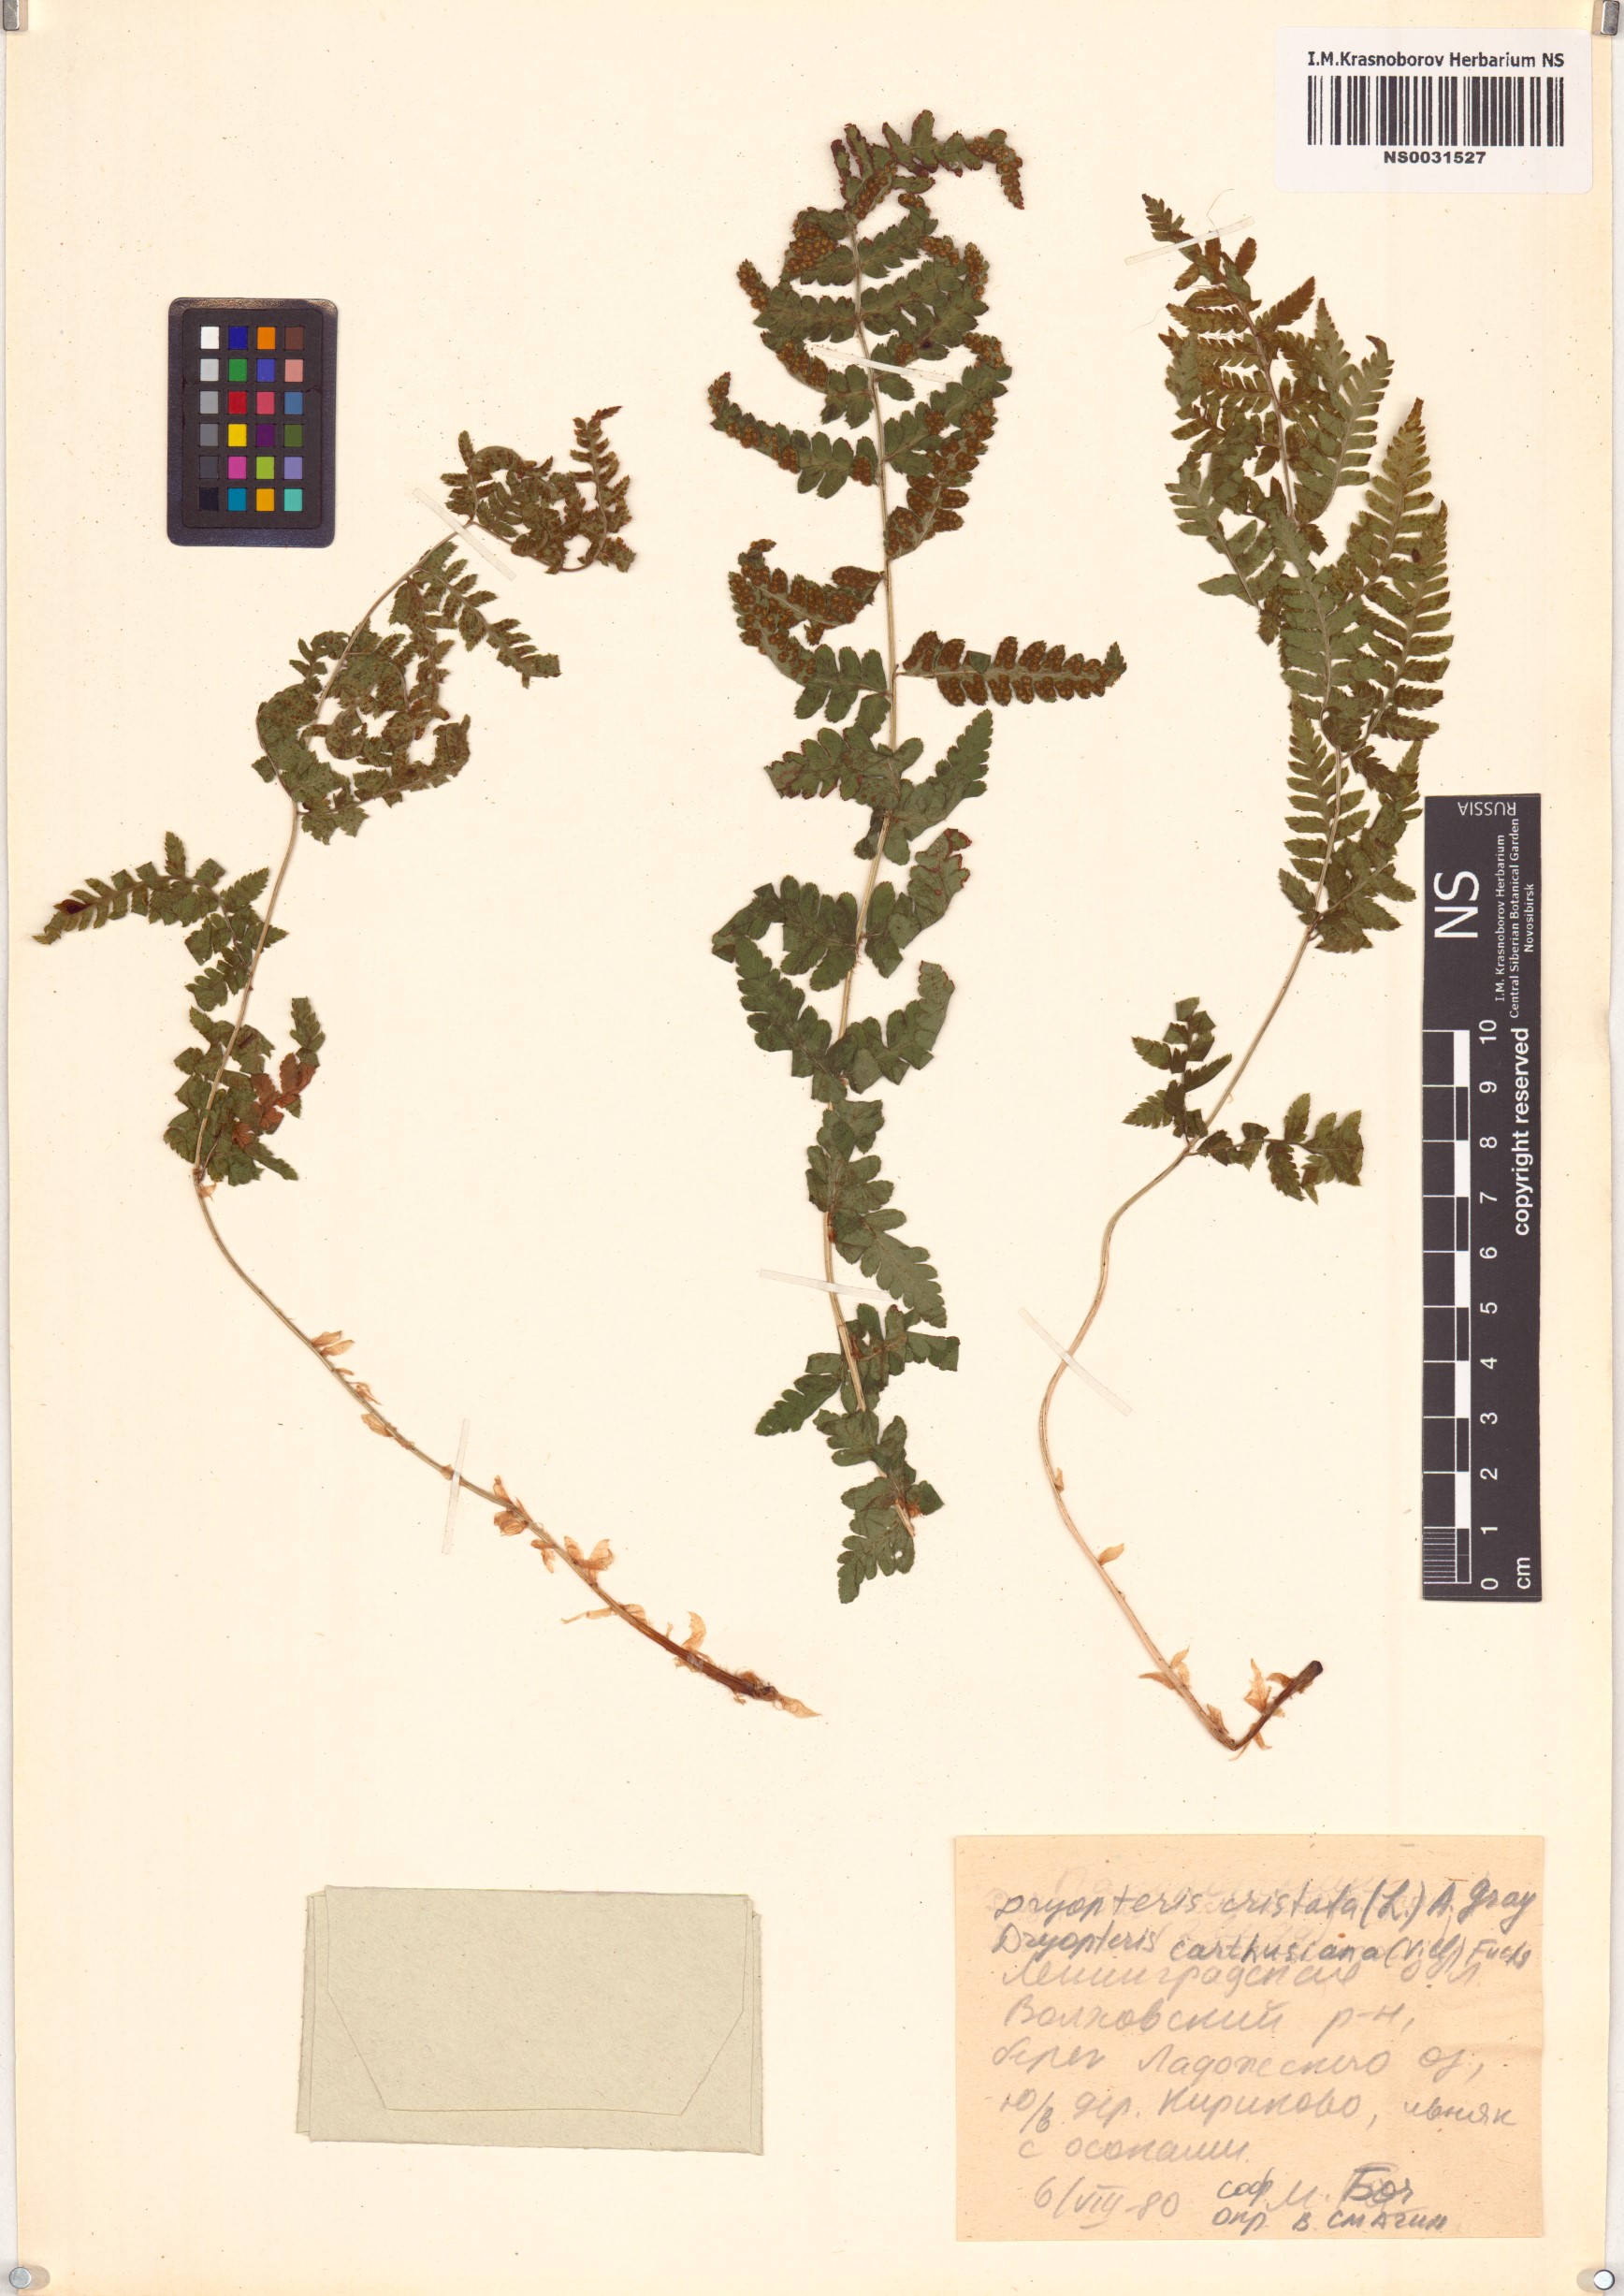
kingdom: Plantae
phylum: Tracheophyta
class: Polypodiopsida
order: Polypodiales
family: Dryopteridaceae
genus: Dryopteris
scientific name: Dryopteris cristata
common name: Crested wood fern
